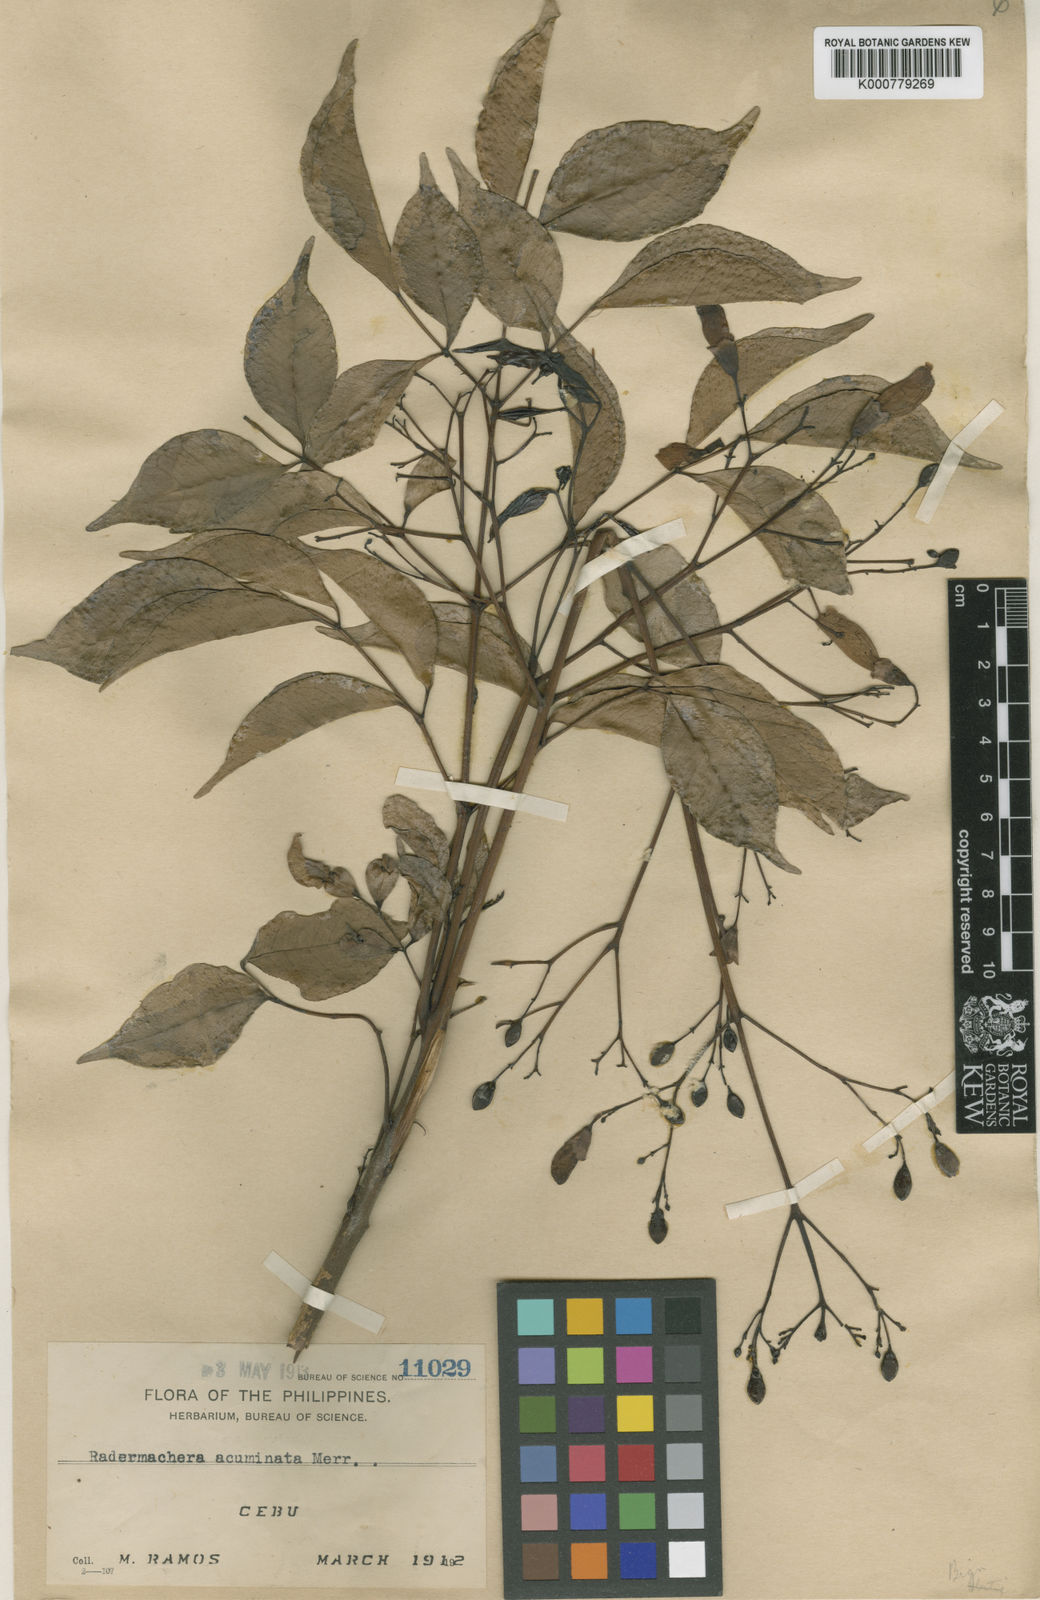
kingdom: Plantae
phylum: Tracheophyta
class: Magnoliopsida
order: Lamiales
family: Bignoniaceae
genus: Radermachera
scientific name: Radermachera pinnata
